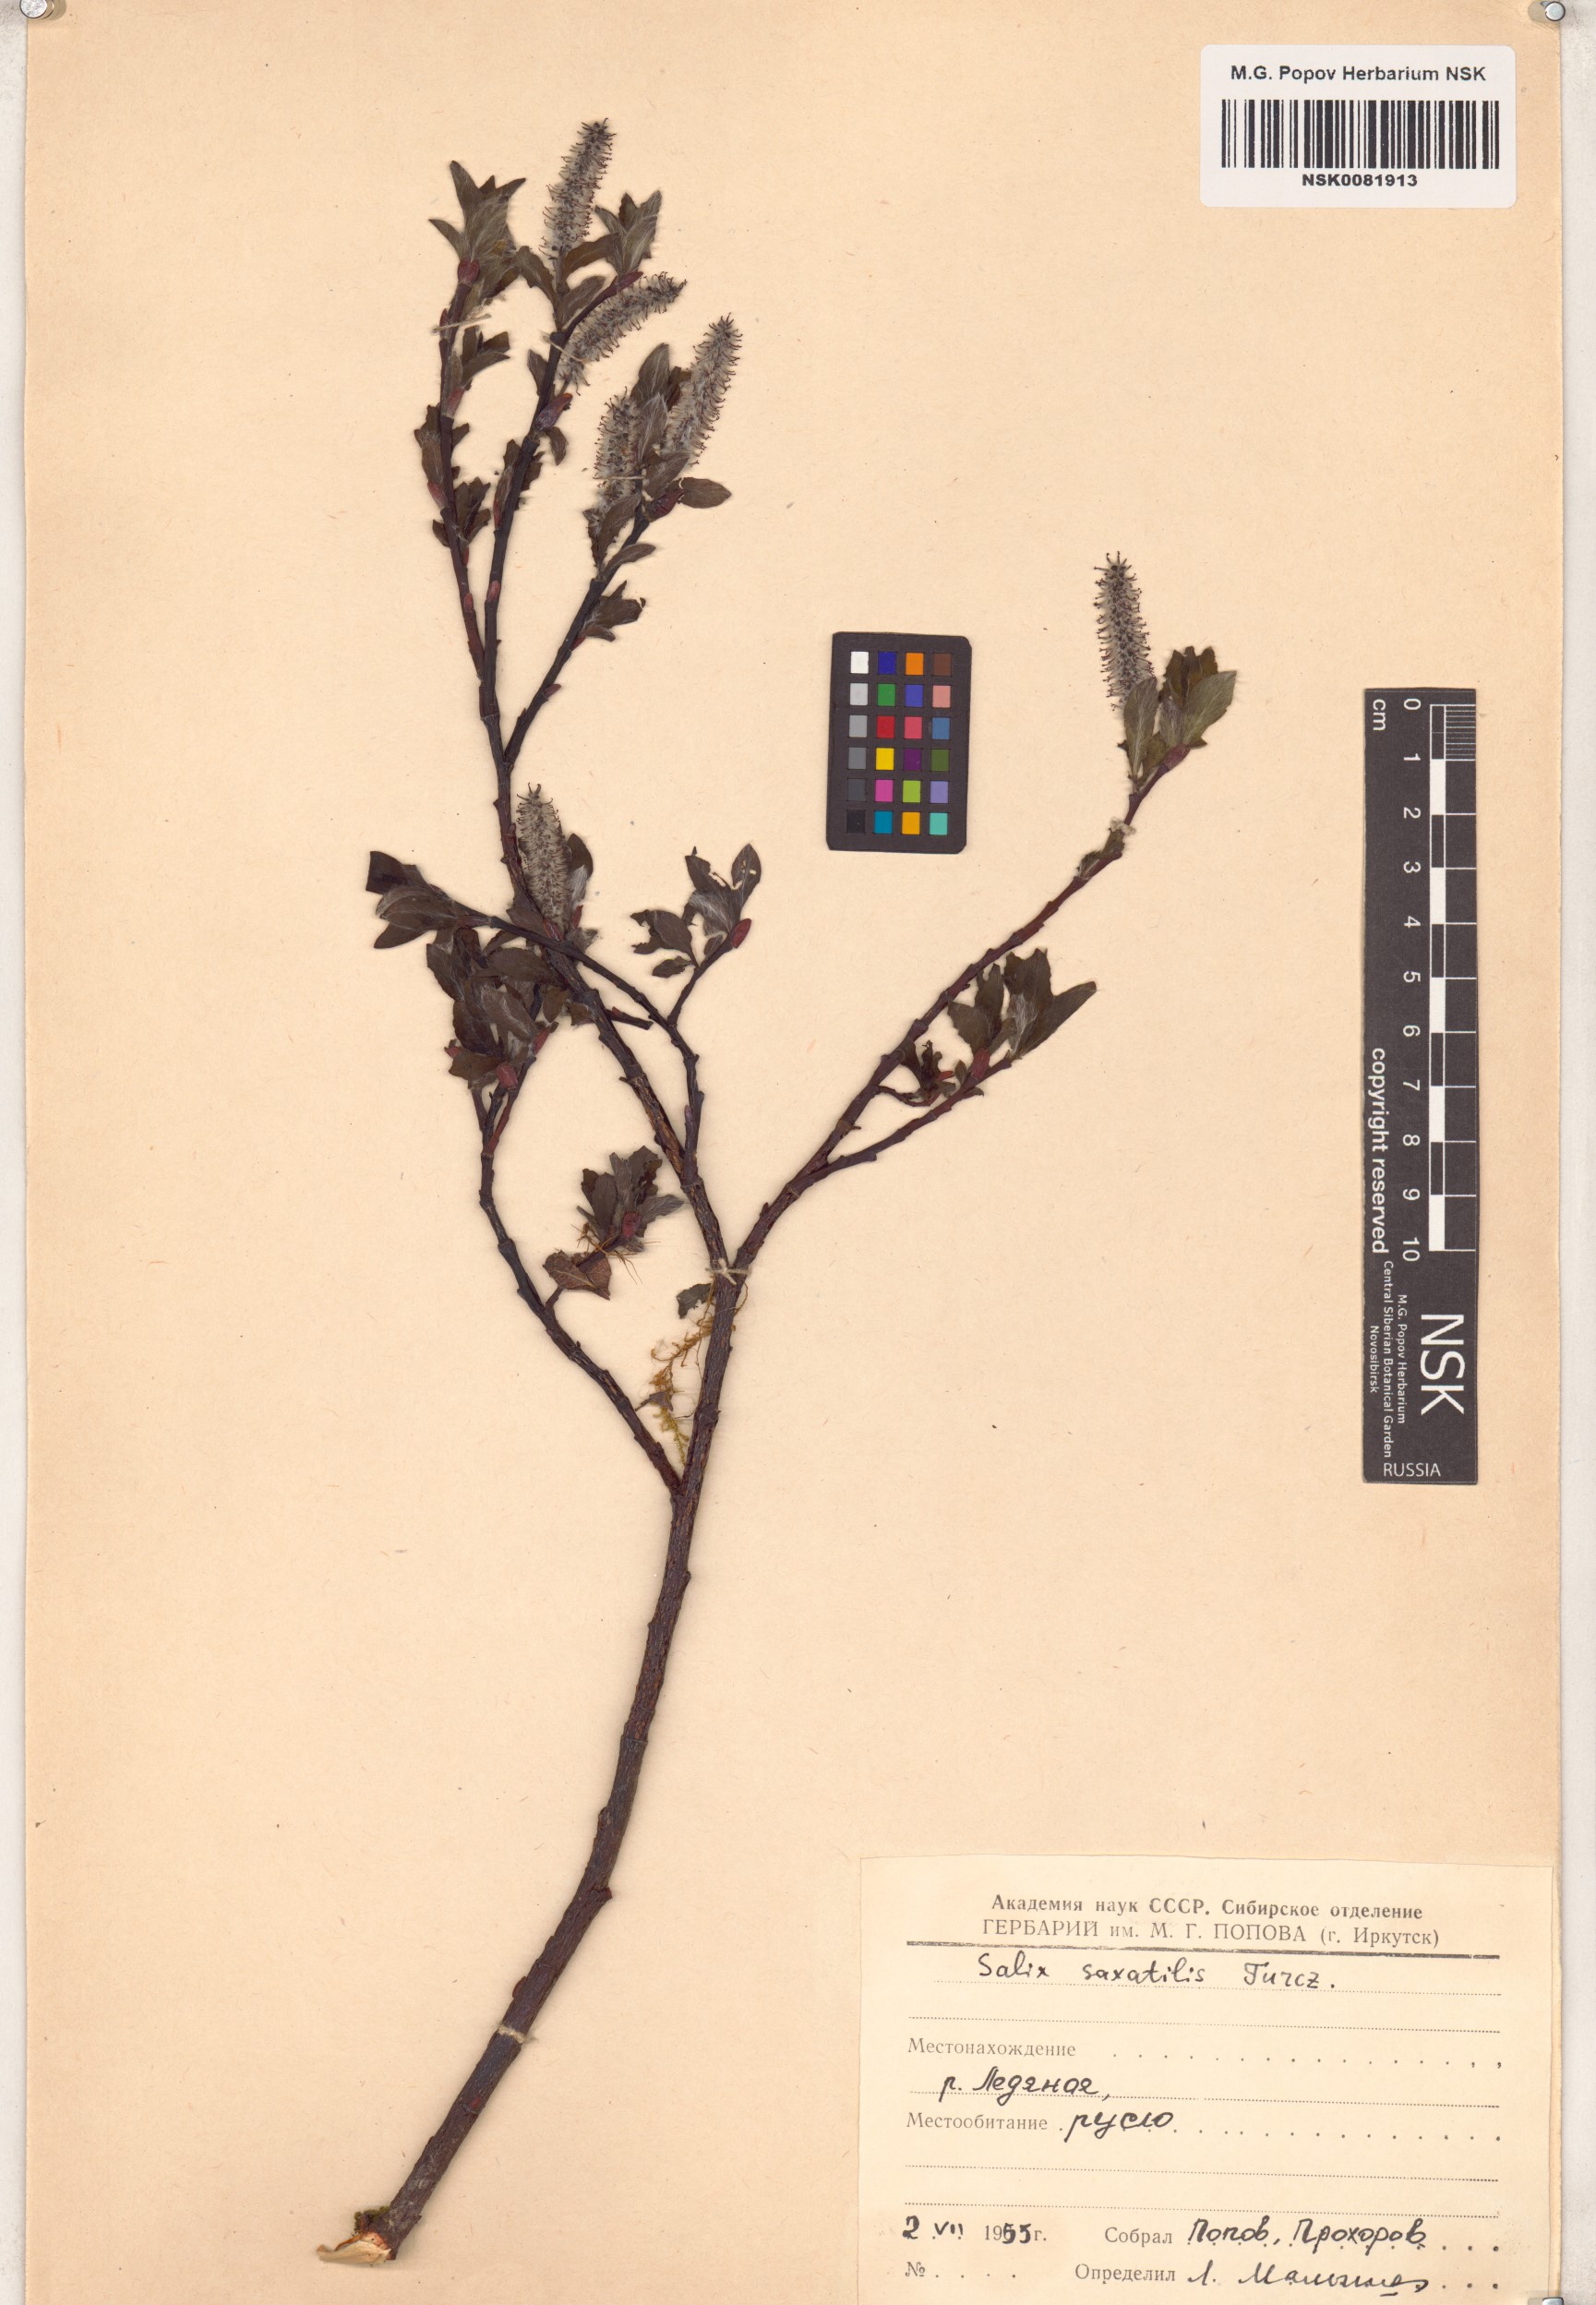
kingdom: Plantae
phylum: Tracheophyta
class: Magnoliopsida
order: Malpighiales
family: Salicaceae
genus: Salix
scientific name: Salix saxatilis
